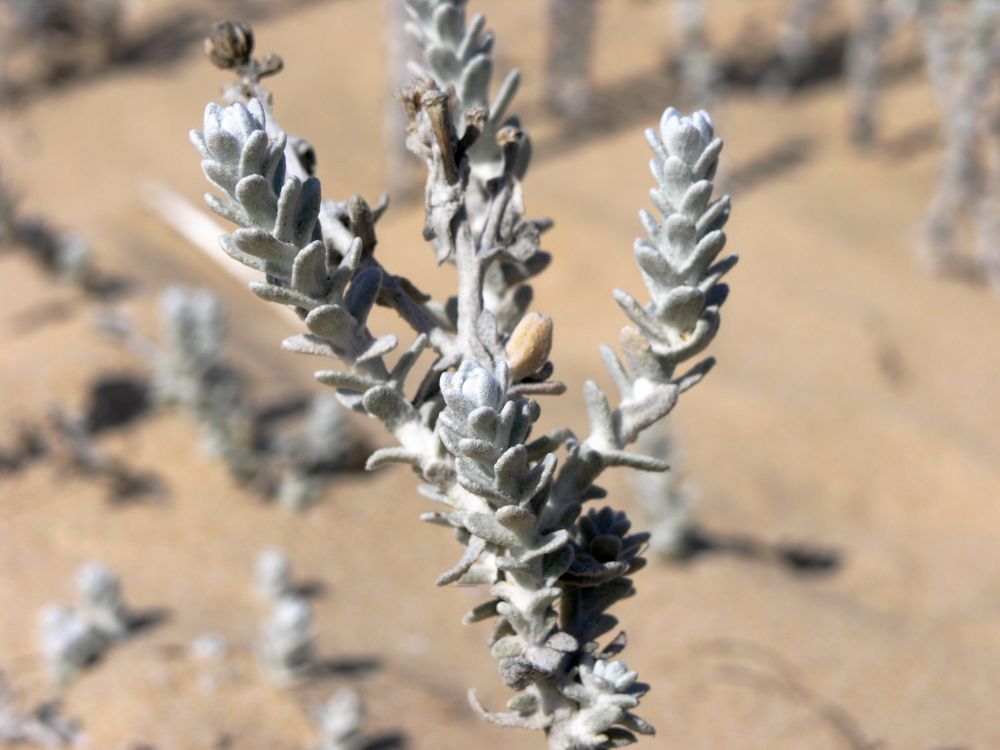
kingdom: Plantae
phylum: Tracheophyta
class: Magnoliopsida
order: Asterales
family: Asteraceae
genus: Achillea
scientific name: Achillea maritima
